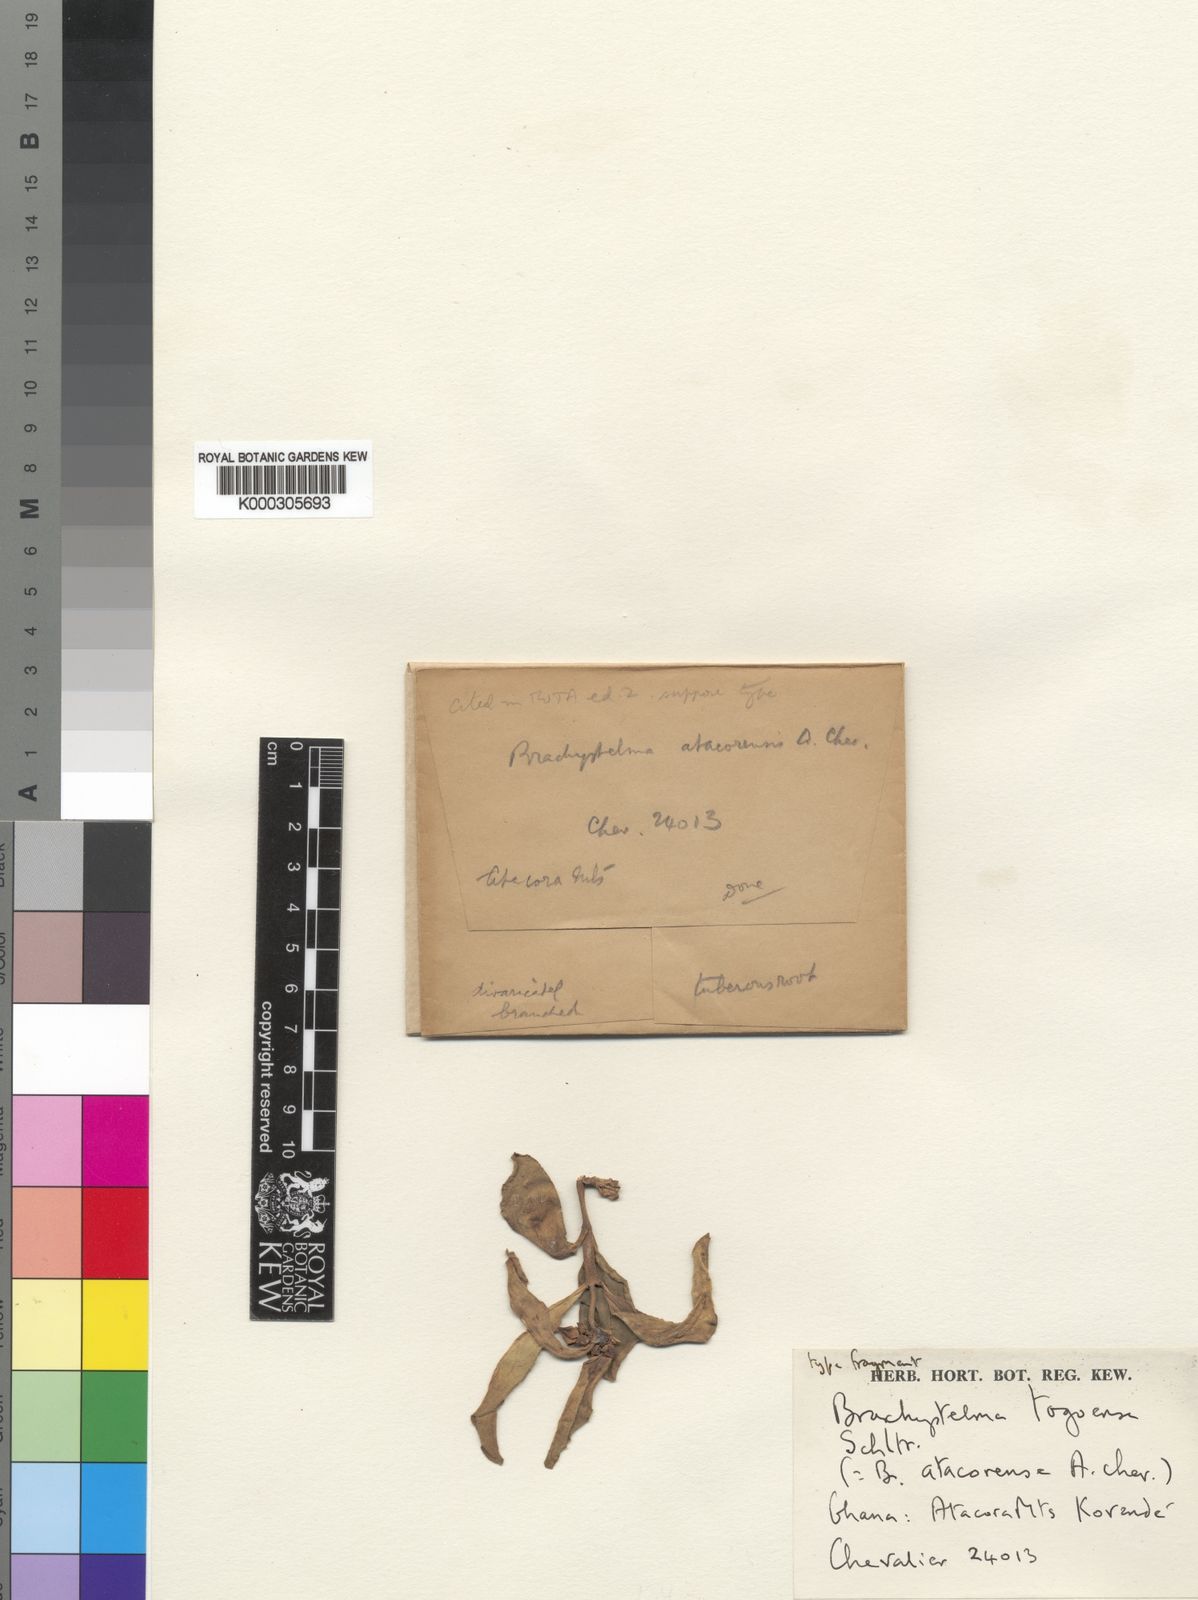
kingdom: Plantae
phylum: Tracheophyta
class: Magnoliopsida
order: Gentianales
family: Apocynaceae
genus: Ceropegia
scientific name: Ceropegia togoensis
